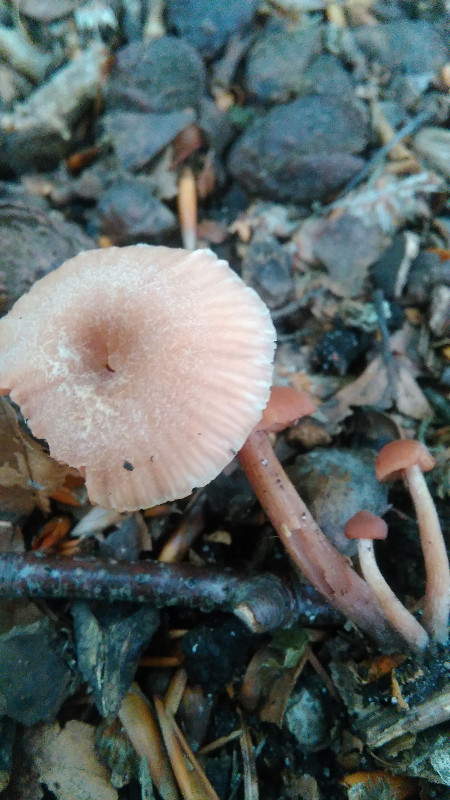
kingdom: Fungi
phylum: Basidiomycota
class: Agaricomycetes
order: Agaricales
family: Hydnangiaceae
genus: Laccaria
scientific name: Laccaria laccata
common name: rød ametysthat
